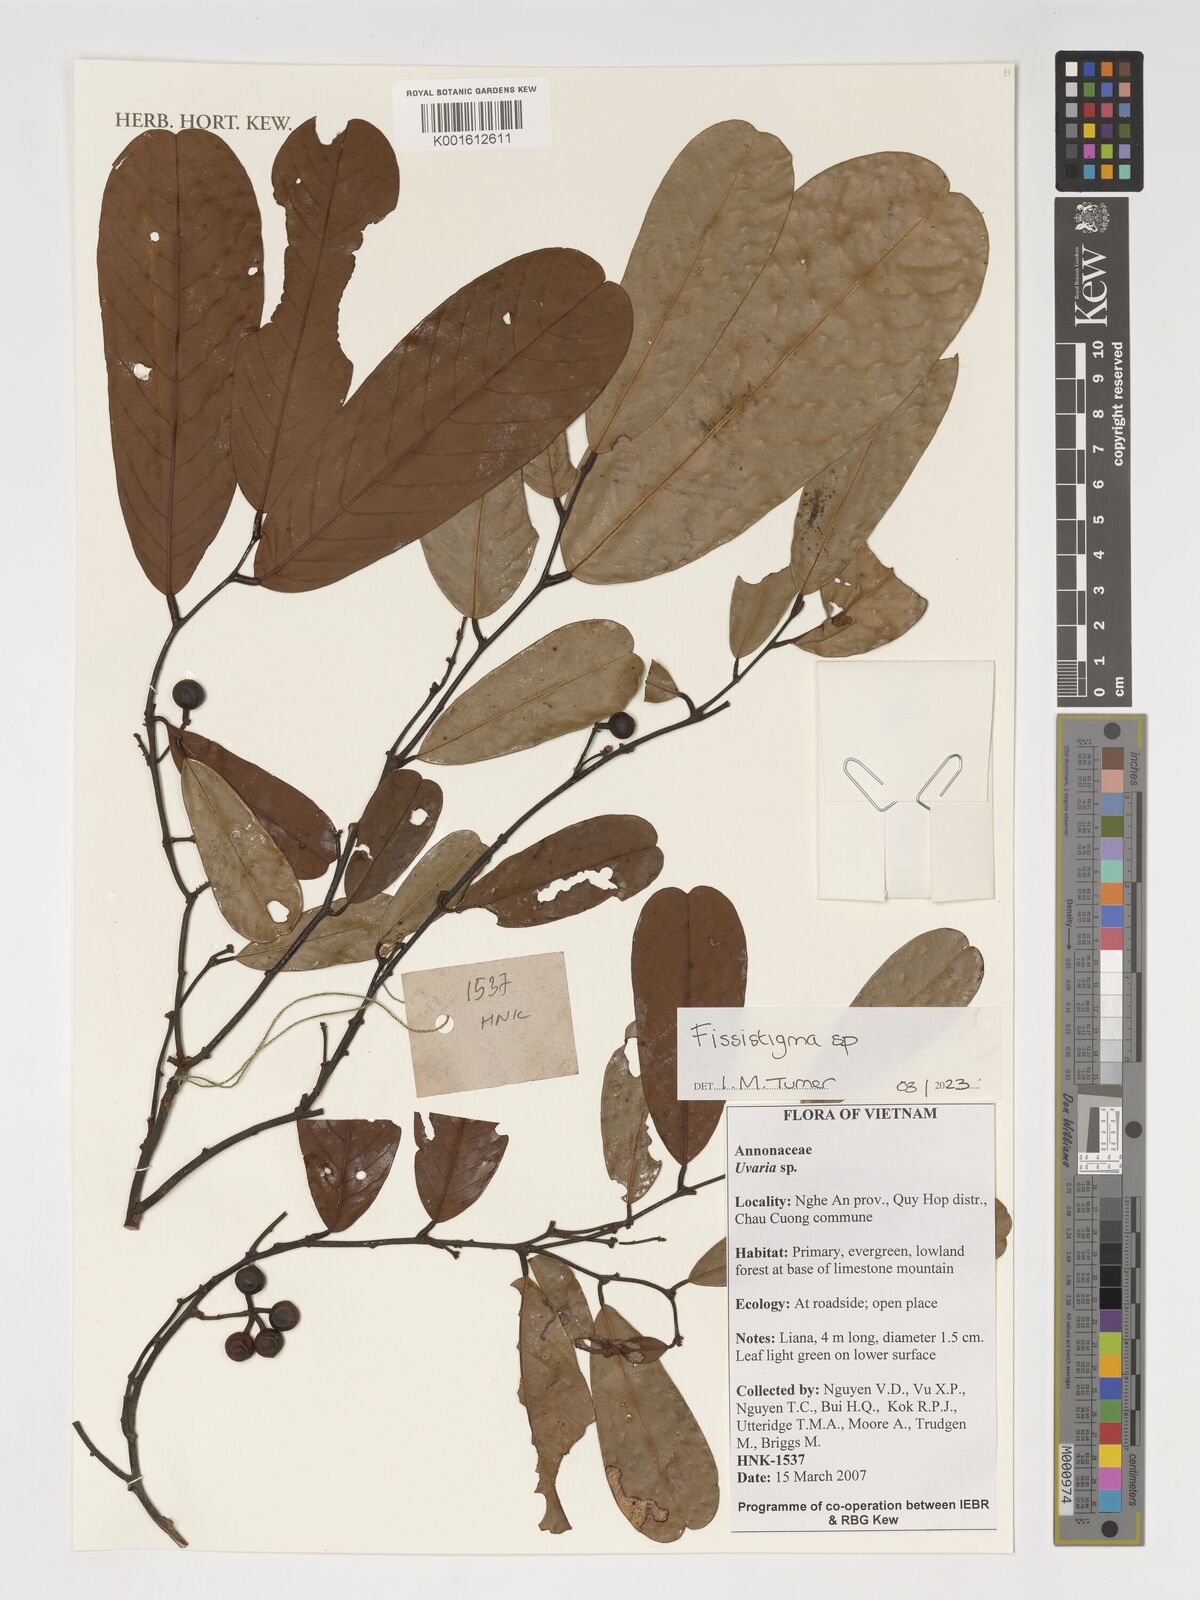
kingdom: Plantae
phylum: Tracheophyta
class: Magnoliopsida
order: Magnoliales
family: Annonaceae
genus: Fissistigma
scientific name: Fissistigma
